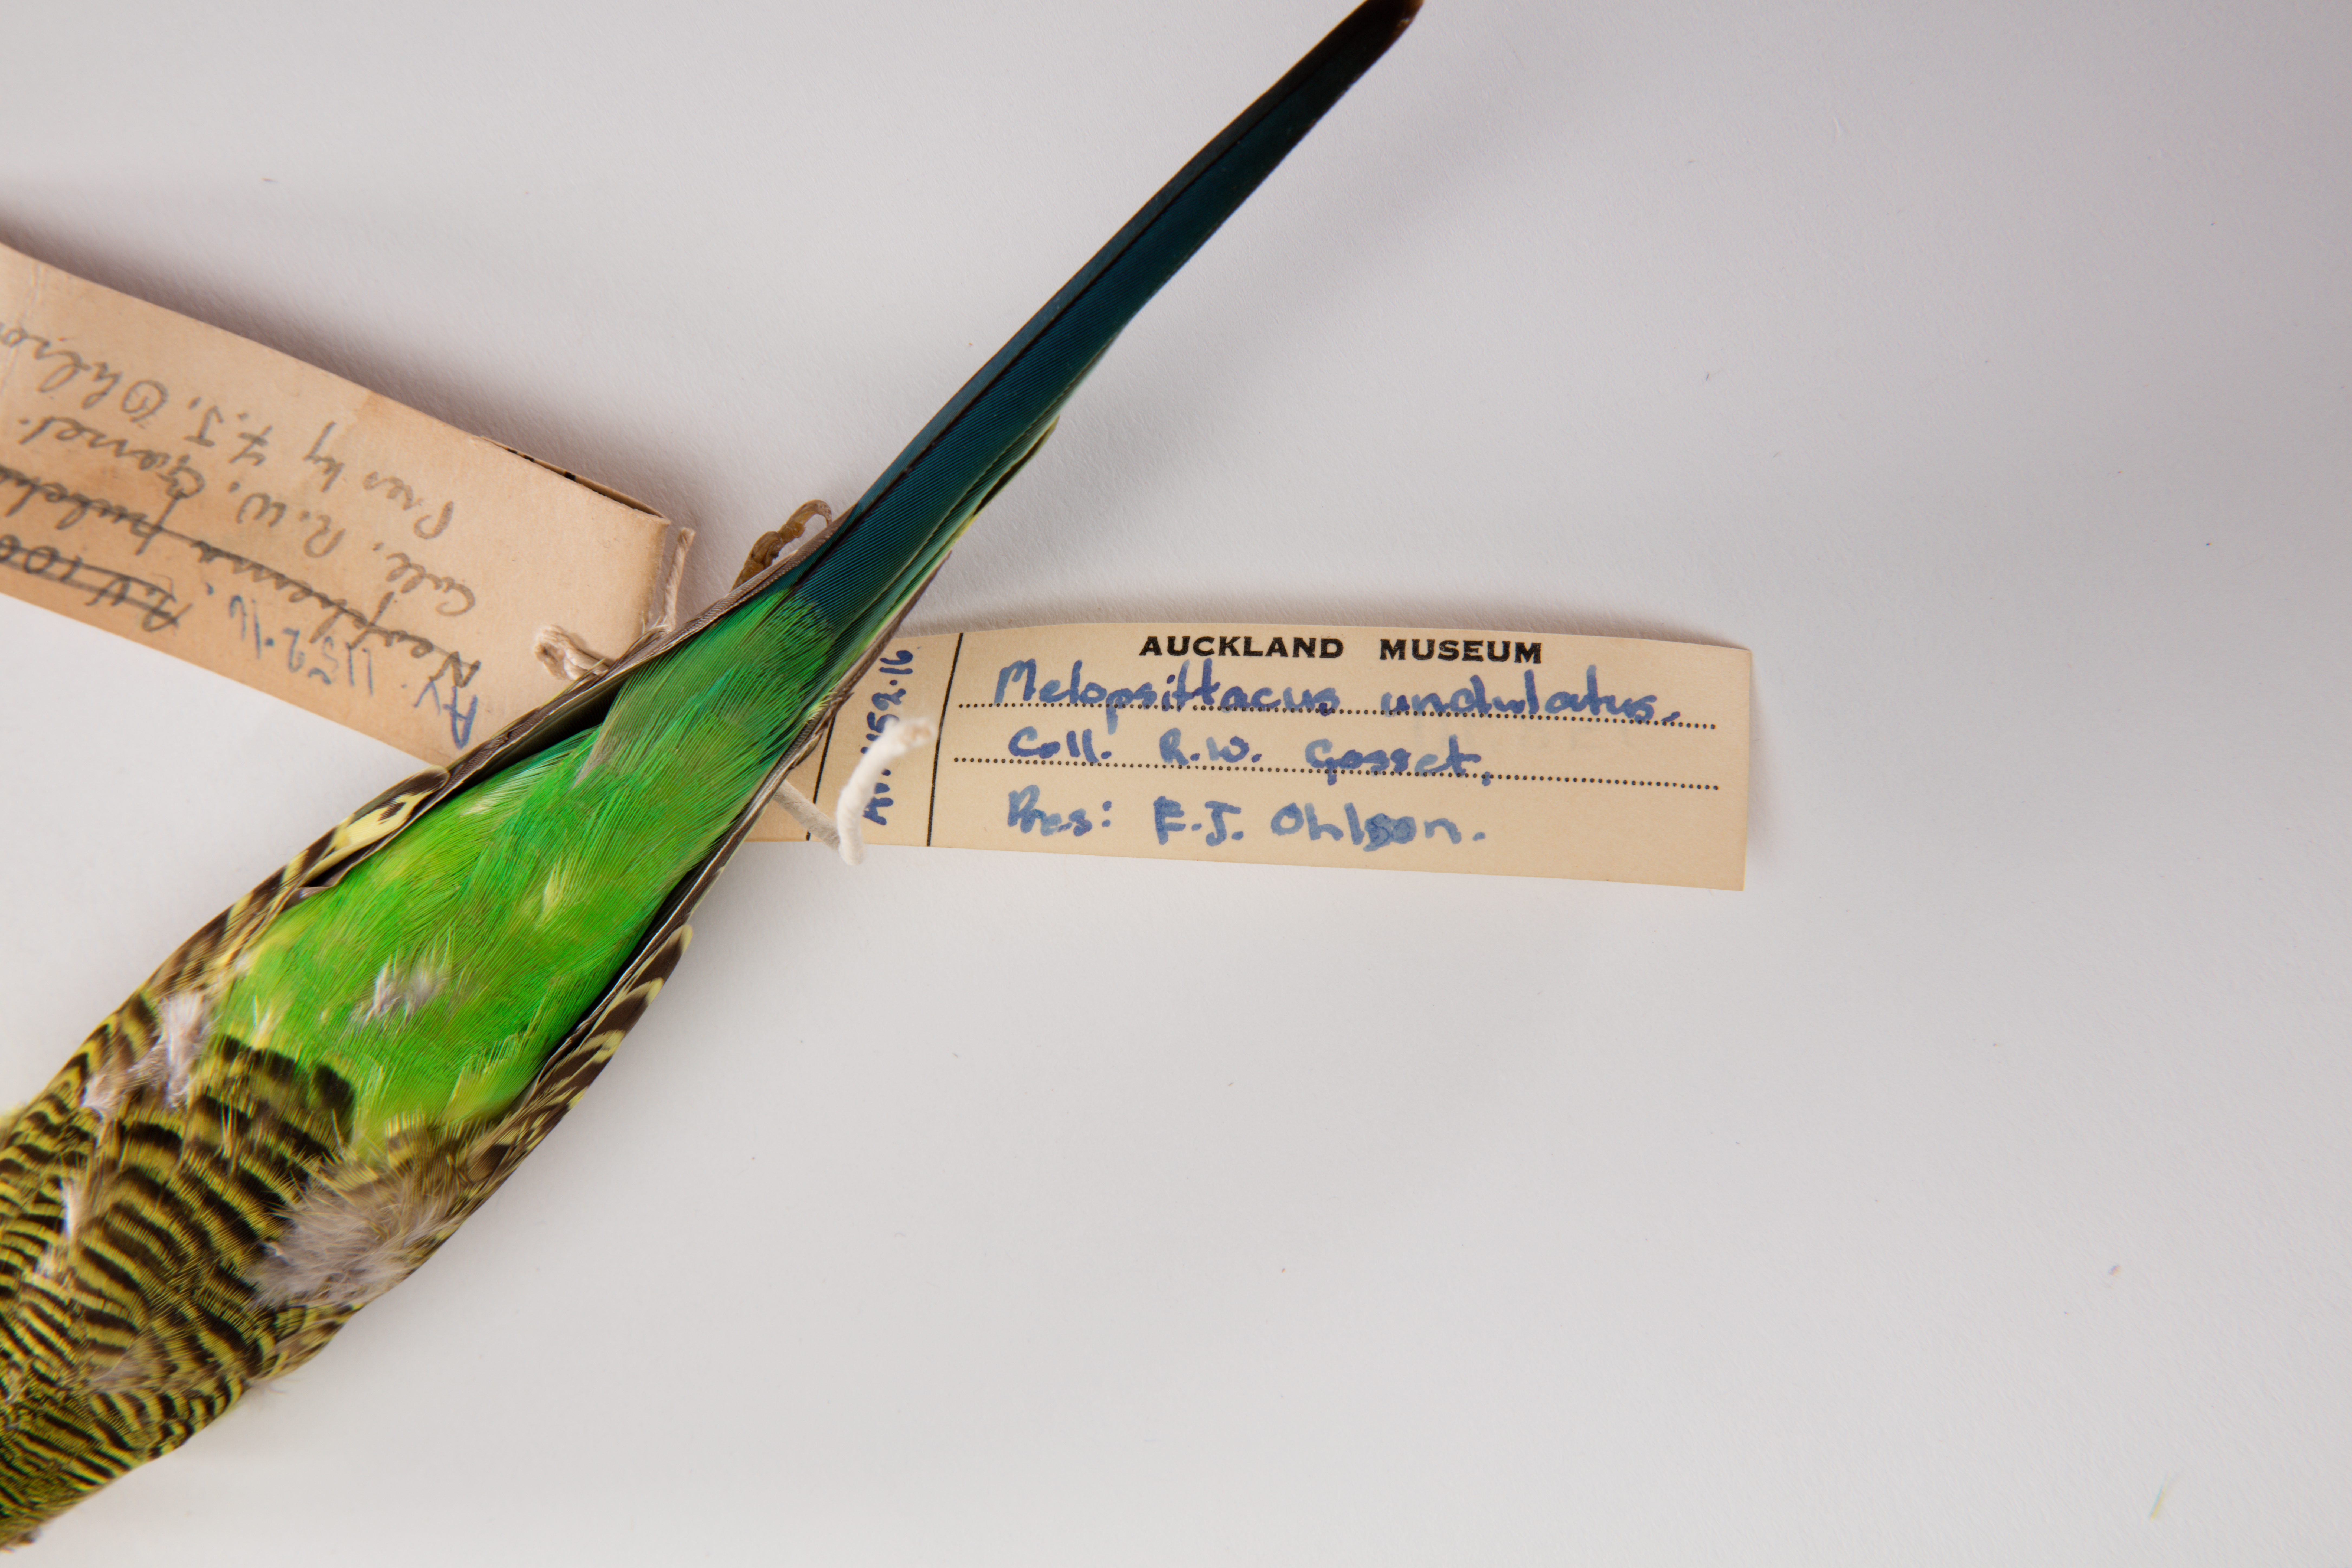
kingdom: Animalia
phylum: Chordata
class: Aves
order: Psittaciformes
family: Psittacidae
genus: Melopsittacus
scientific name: Melopsittacus undulatus
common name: Budgerigar
